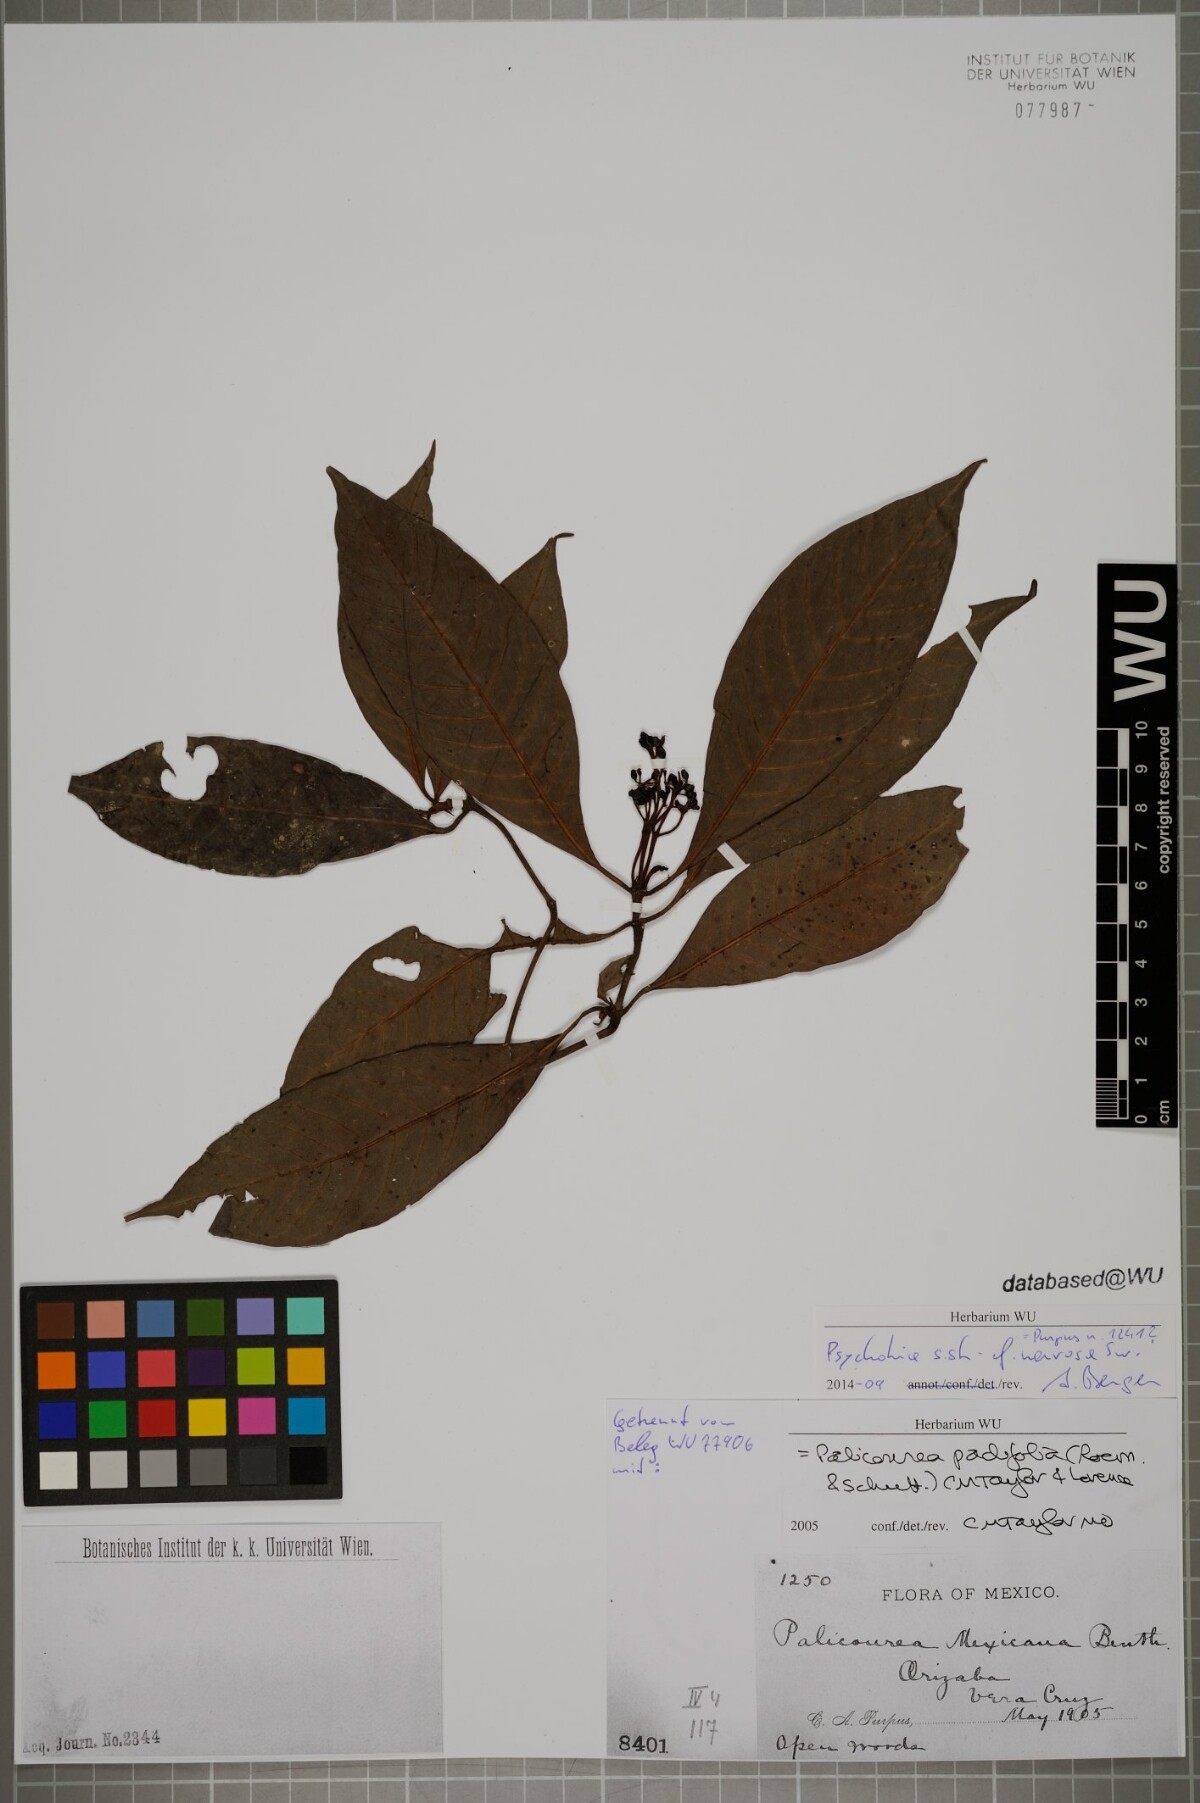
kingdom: Plantae
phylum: Tracheophyta
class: Magnoliopsida
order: Gentianales
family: Rubiaceae
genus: Psychotria
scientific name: Psychotria nervosa
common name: Bastard cankerberry
